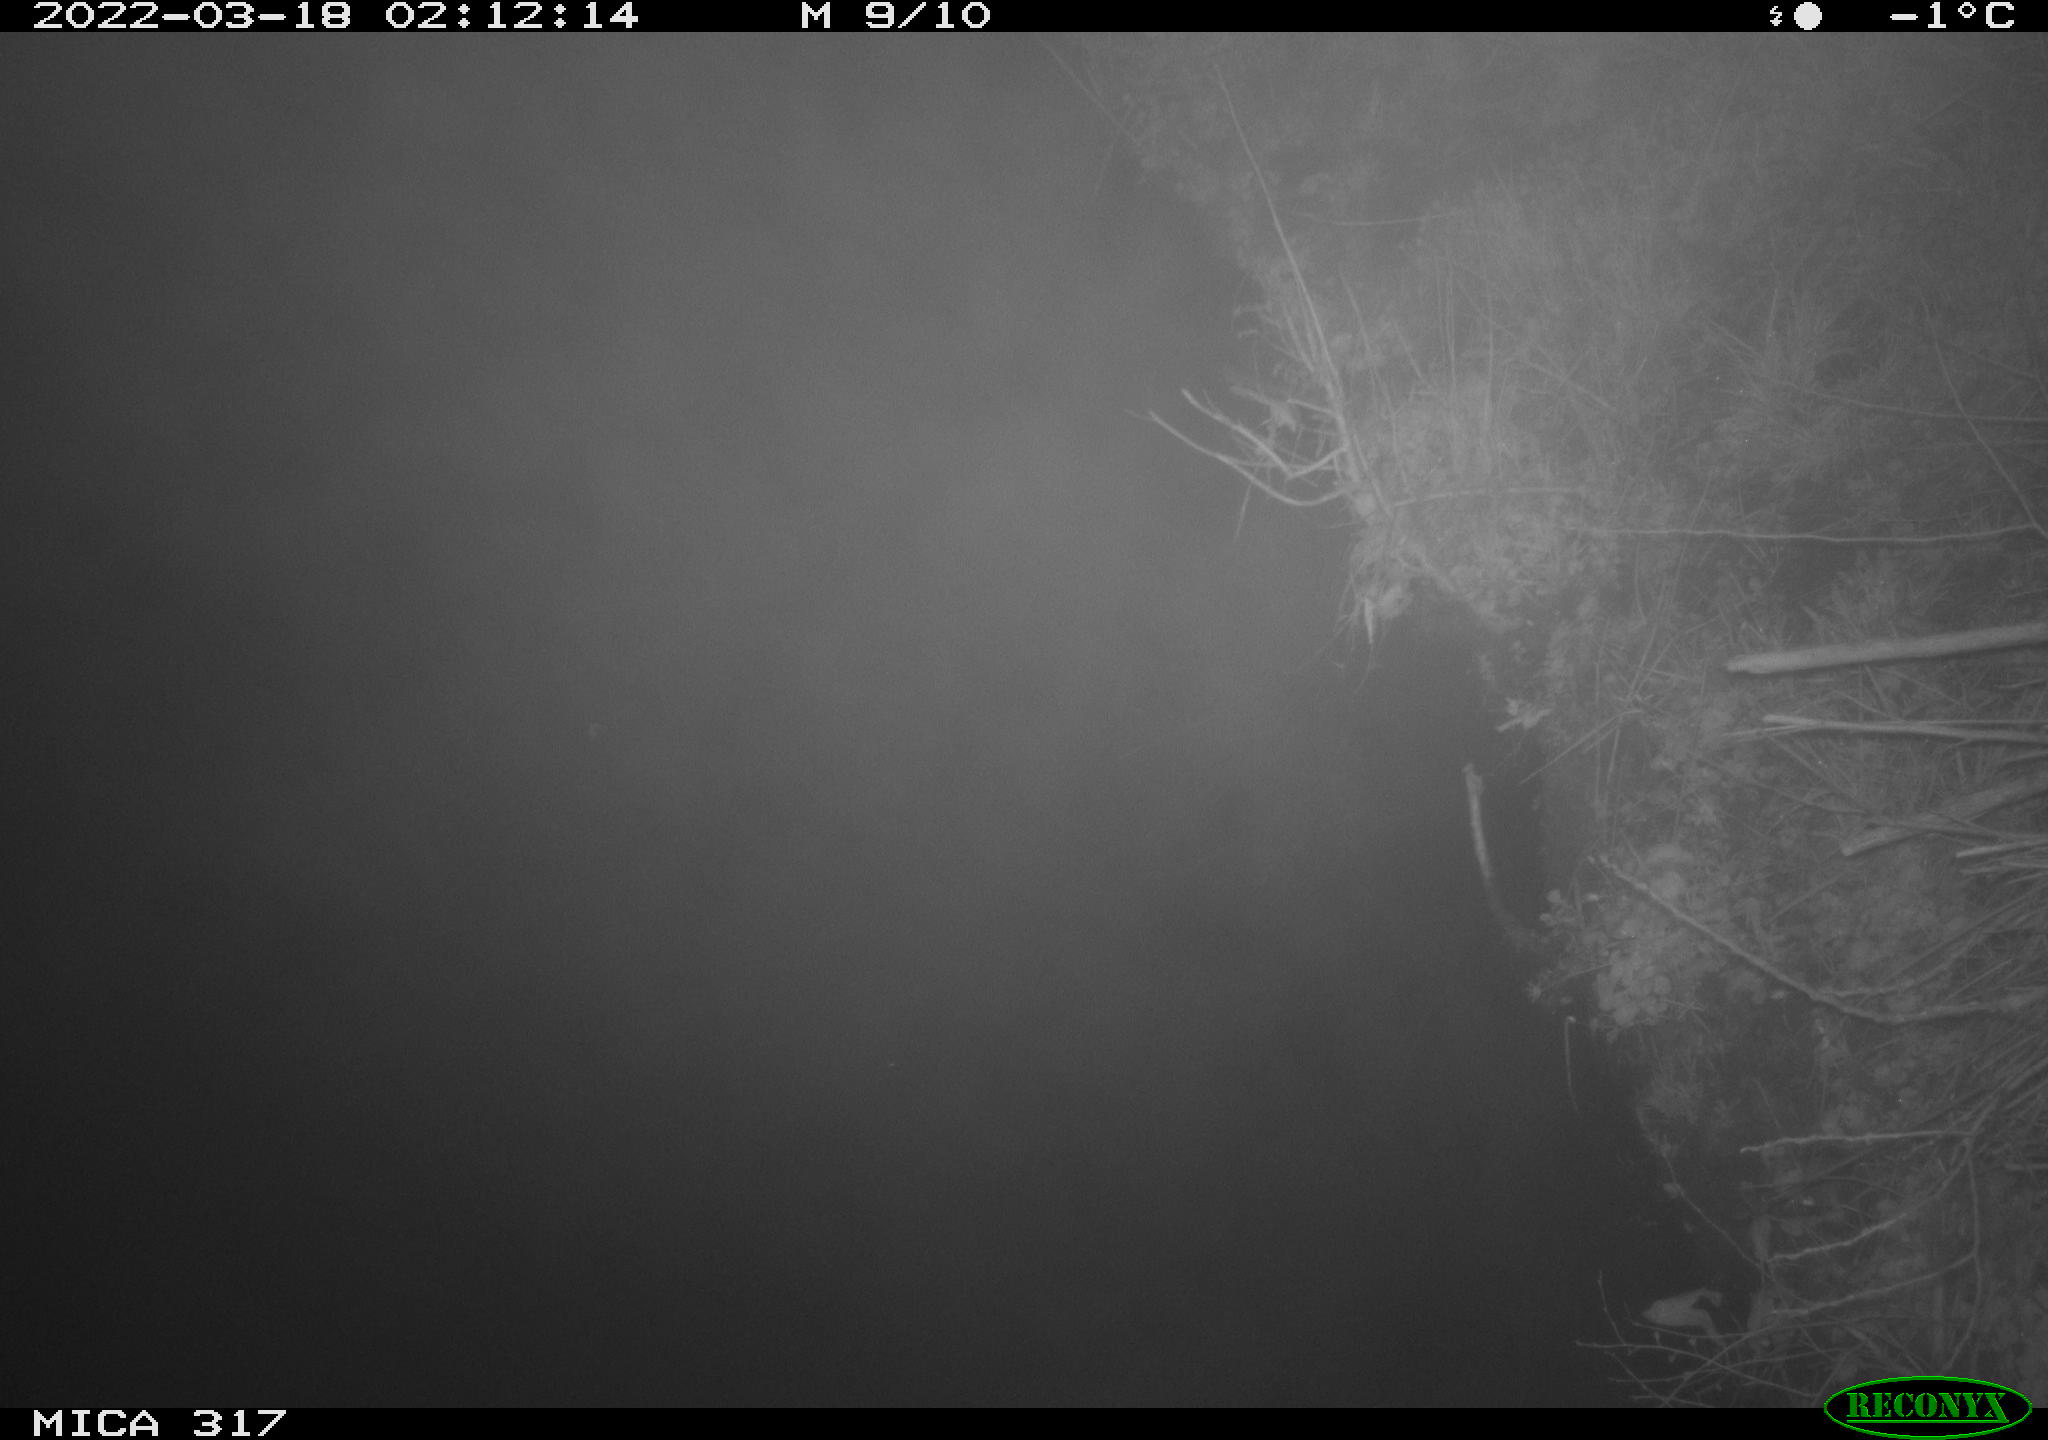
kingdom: Animalia
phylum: Chordata
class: Aves
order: Anseriformes
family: Anatidae
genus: Anas
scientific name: Anas platyrhynchos
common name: Mallard
